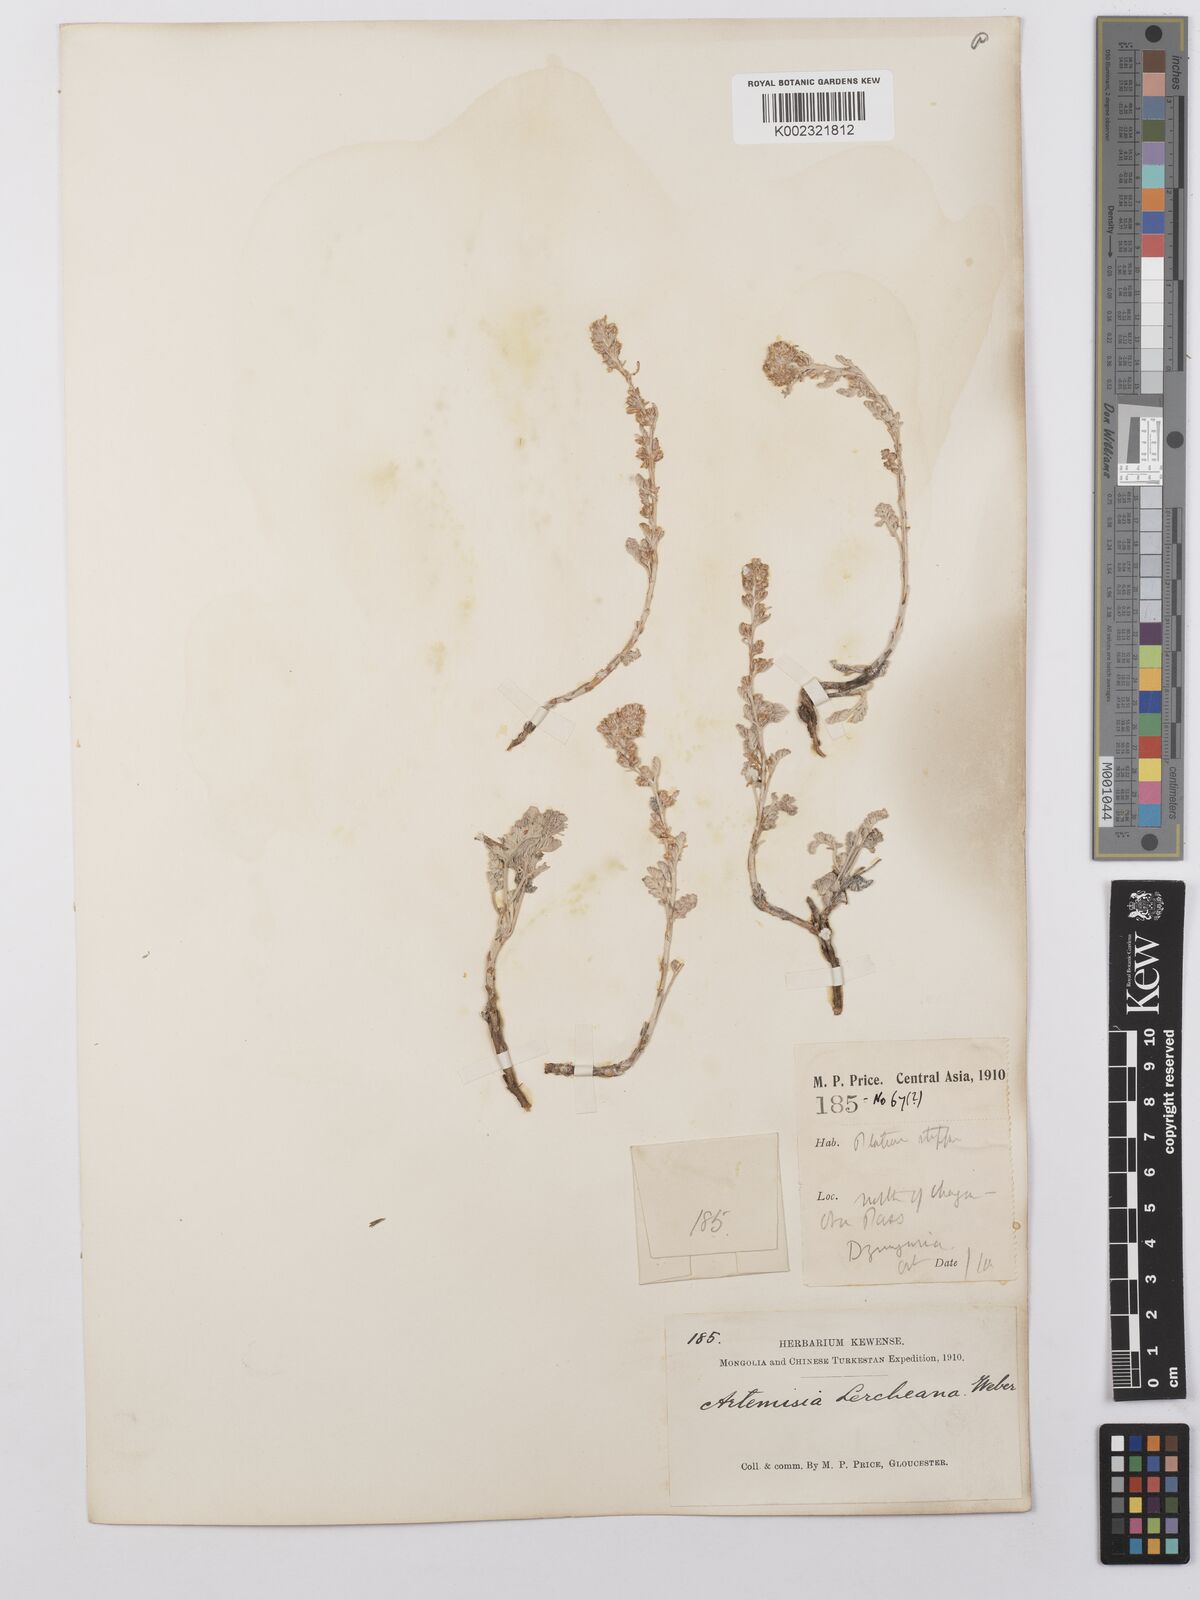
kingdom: Plantae
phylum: Tracheophyta
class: Magnoliopsida
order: Asterales
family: Asteraceae
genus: Artemisia
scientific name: Artemisia lercheana
